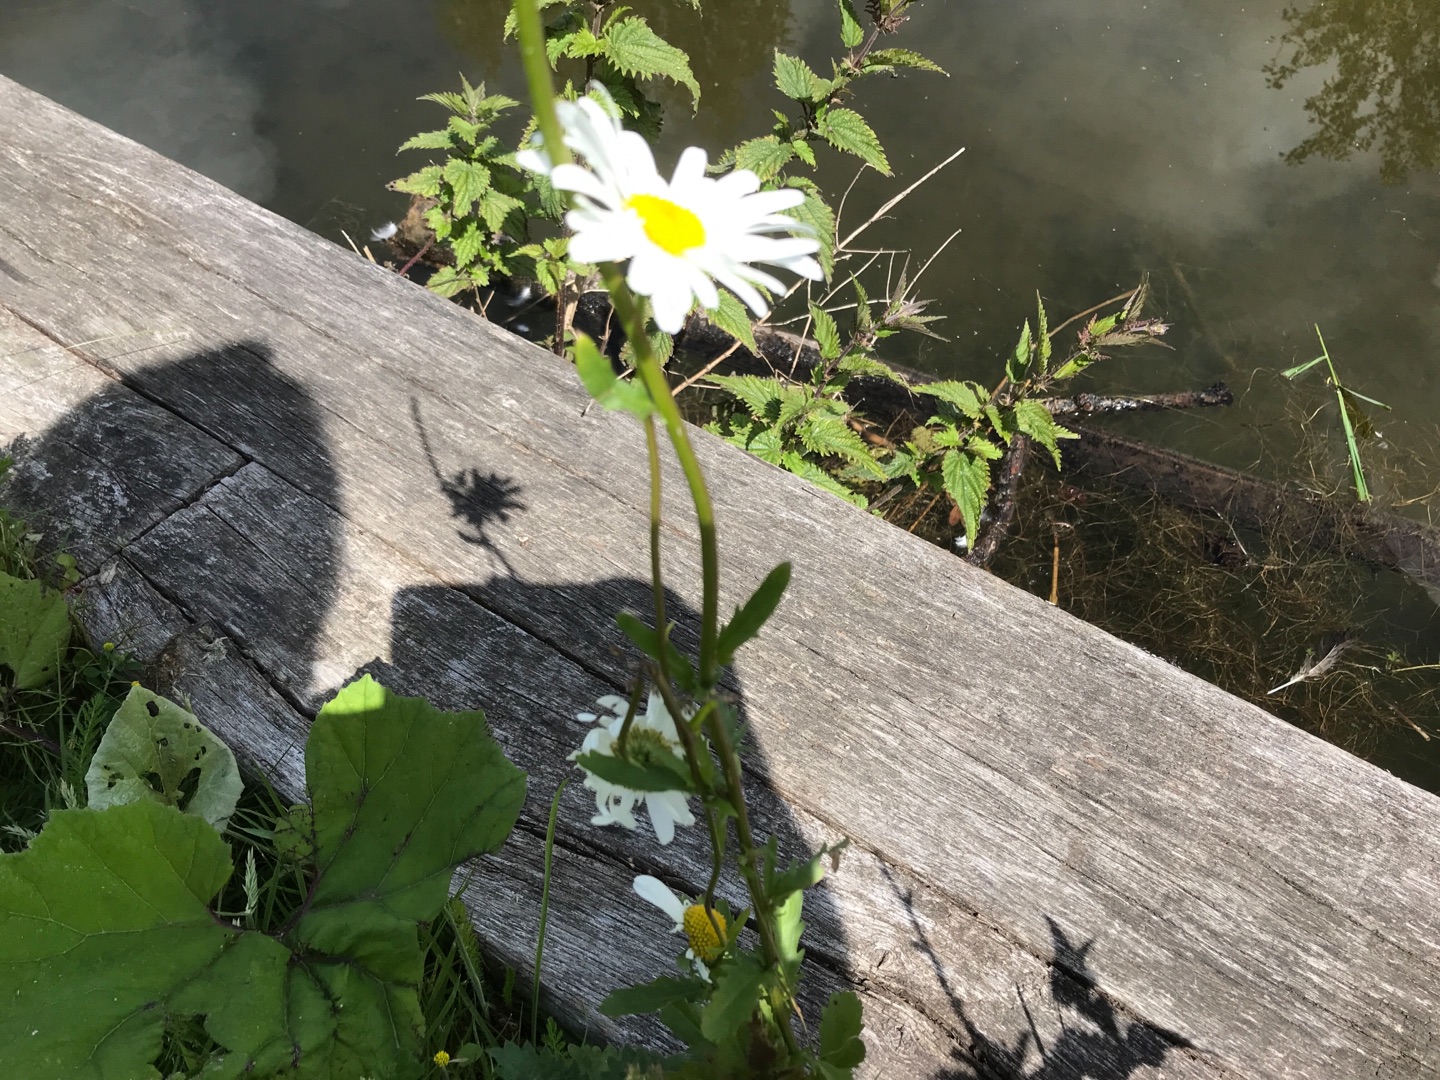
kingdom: Plantae
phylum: Tracheophyta
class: Magnoliopsida
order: Asterales
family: Asteraceae
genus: Leucanthemum
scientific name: Leucanthemum vulgare
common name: Hvid okseøje
